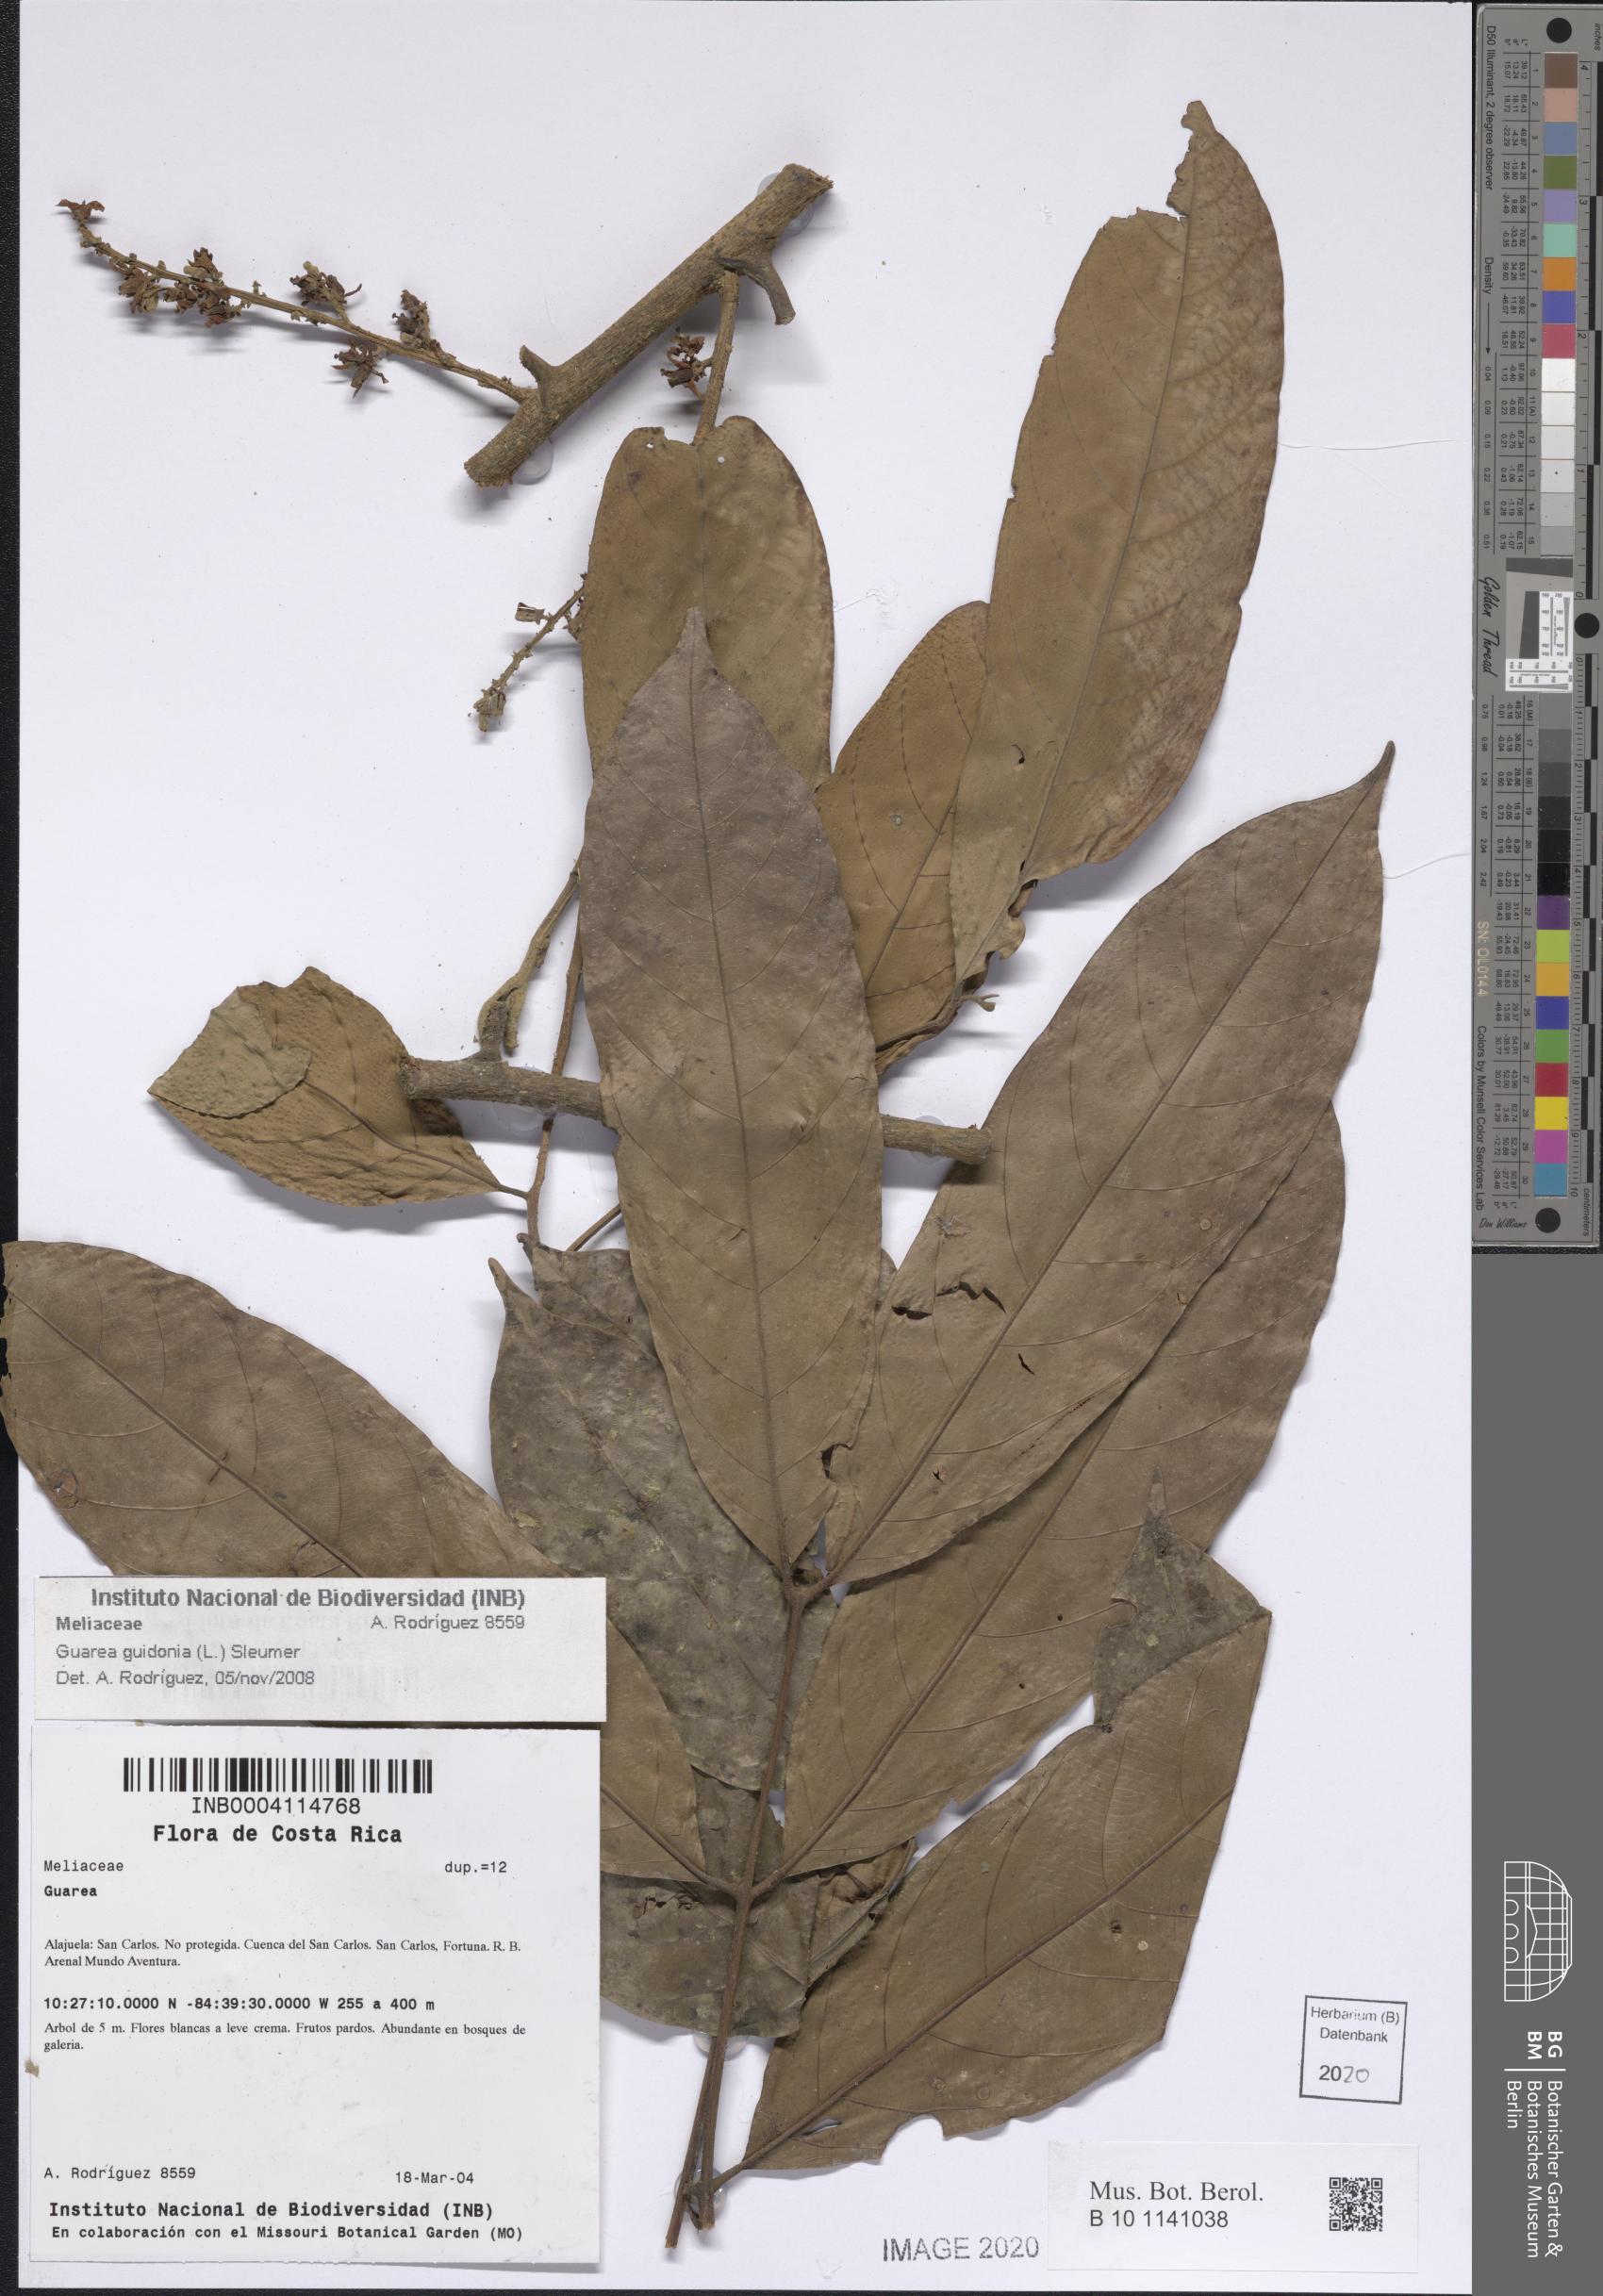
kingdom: Plantae
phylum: Tracheophyta
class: Magnoliopsida
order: Sapindales
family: Meliaceae
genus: Guarea
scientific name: Guarea guidonia
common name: American muskwood
